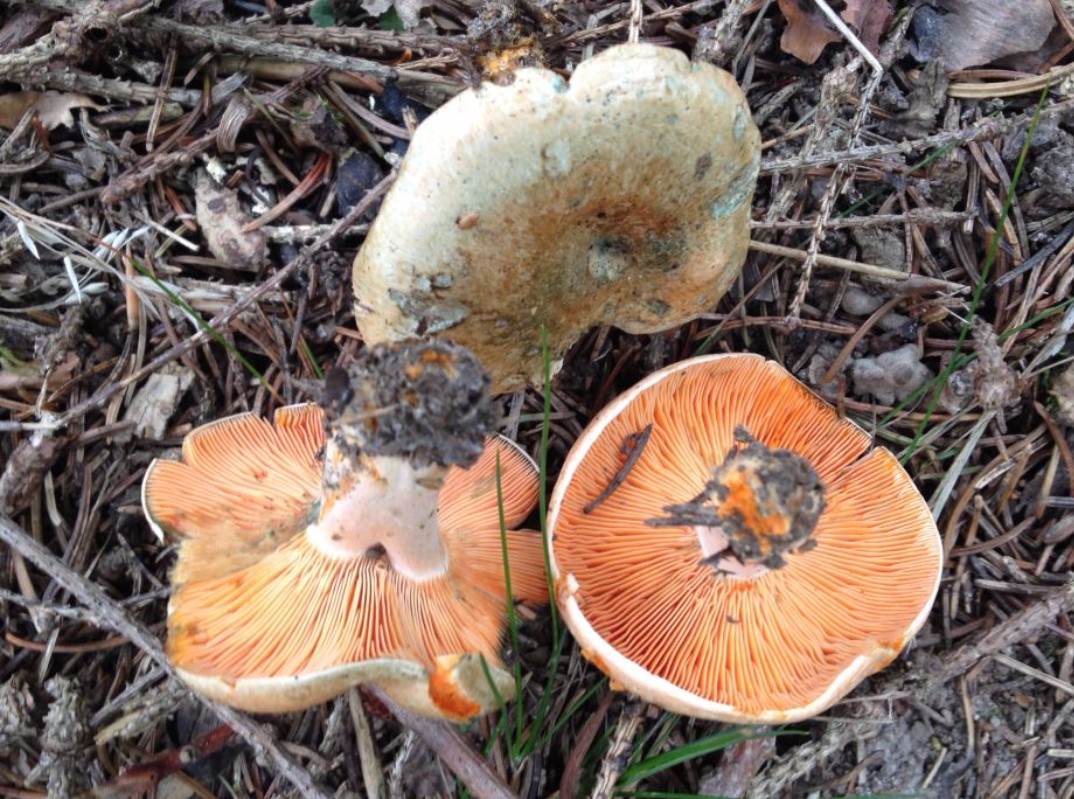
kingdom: Fungi
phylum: Basidiomycota
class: Agaricomycetes
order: Russulales
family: Russulaceae
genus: Lactarius
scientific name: Lactarius deterrimus
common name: gran-mælkehat
